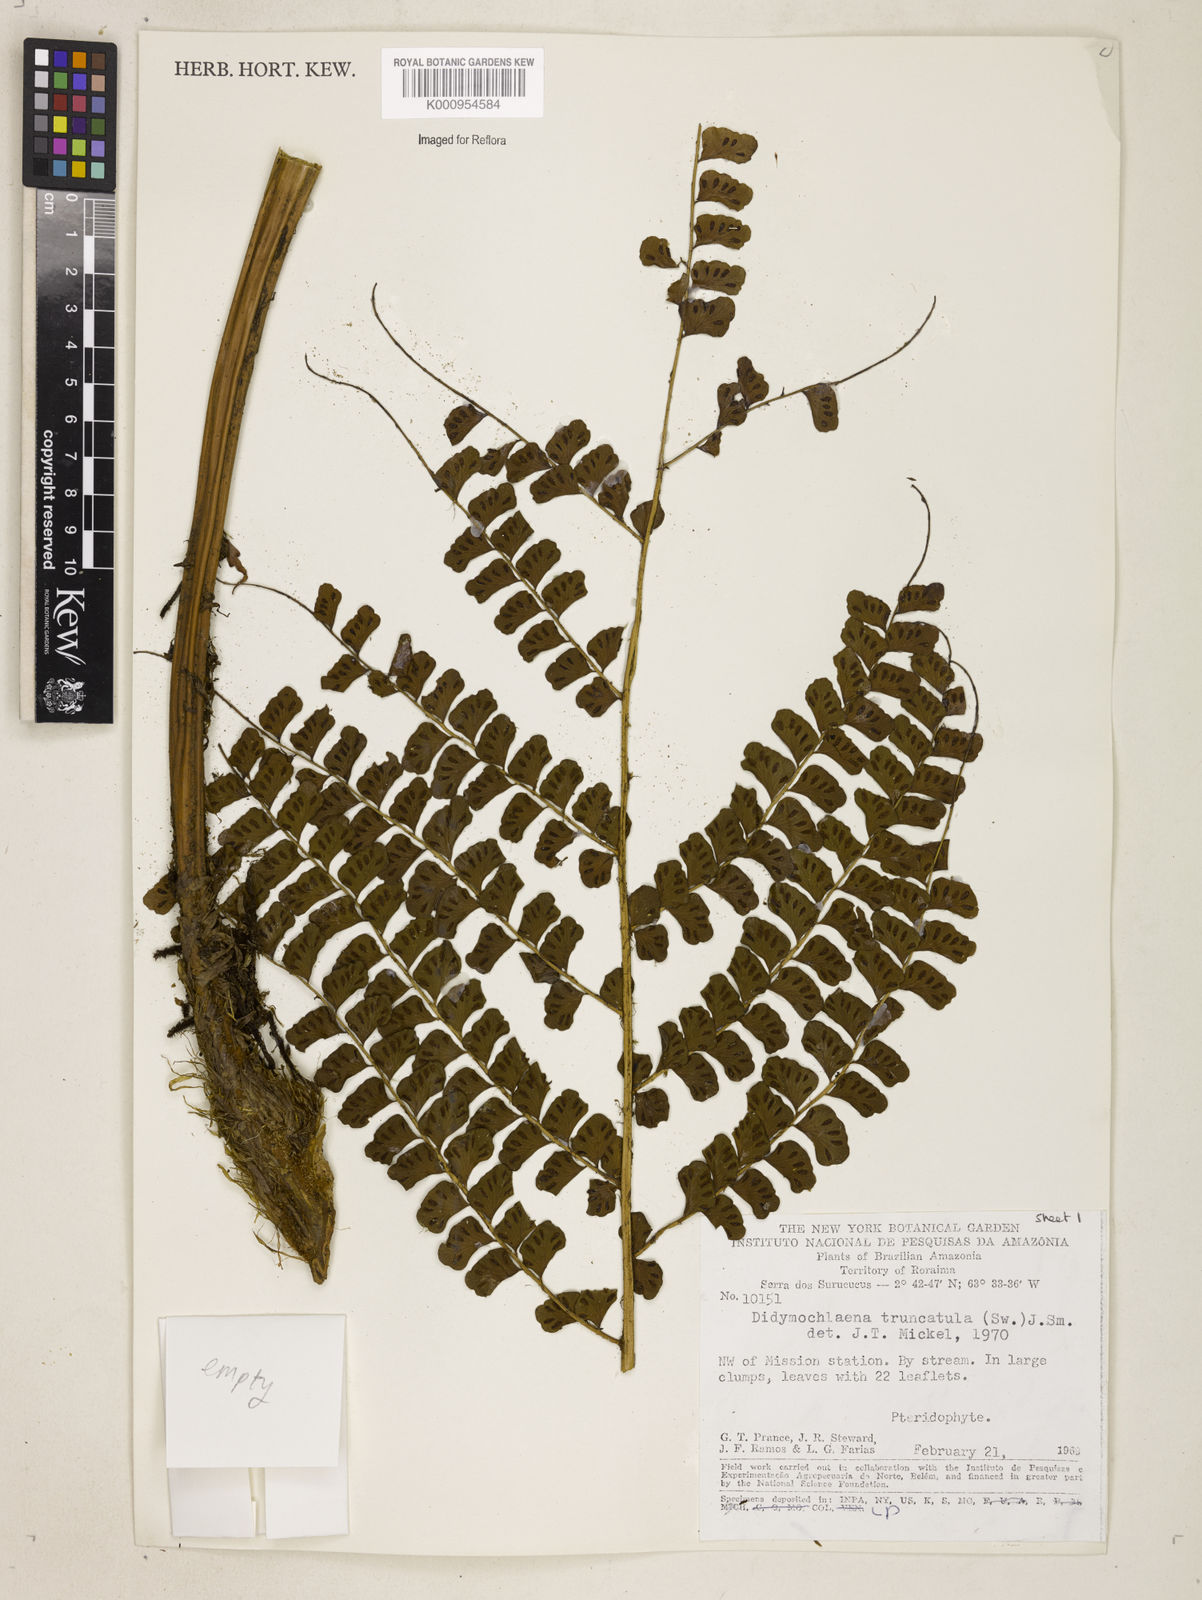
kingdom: Plantae
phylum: Tracheophyta
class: Polypodiopsida
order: Polypodiales
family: Didymochlaenaceae
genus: Didymochlaena
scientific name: Didymochlaena truncatula
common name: Mahogany fern
